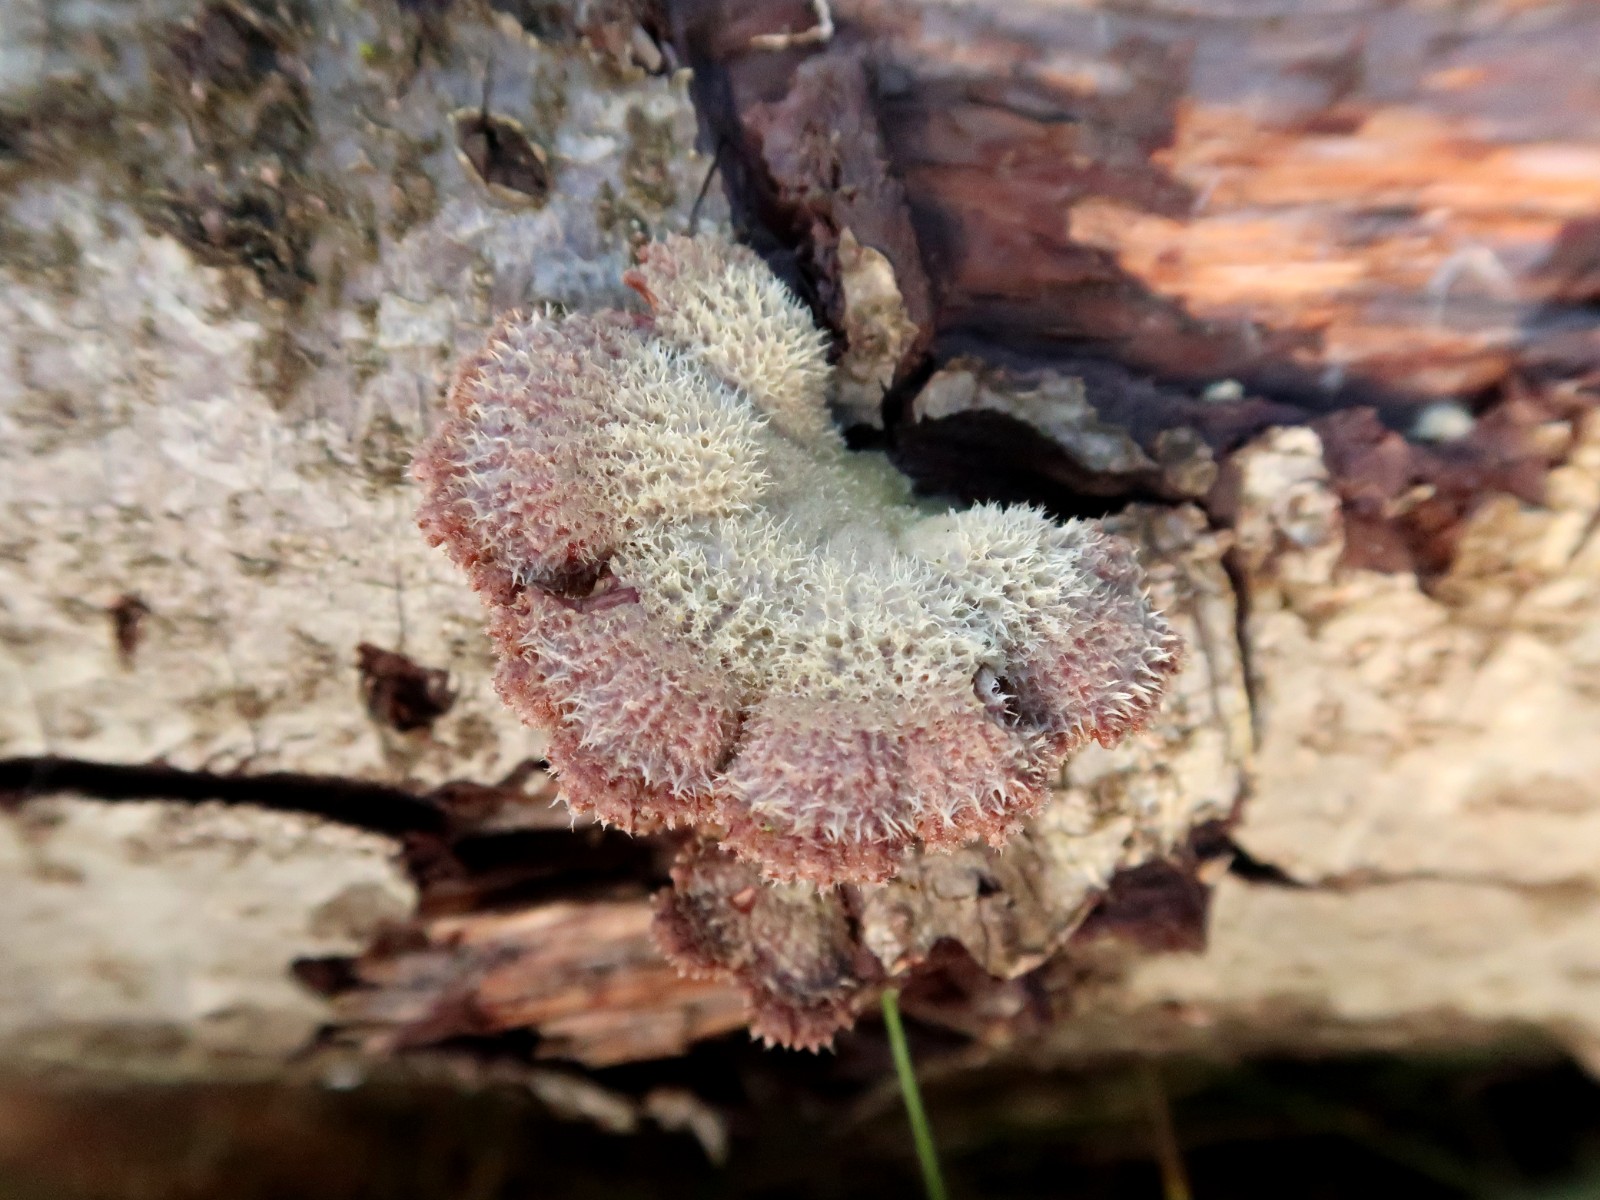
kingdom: Fungi
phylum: Basidiomycota
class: Agaricomycetes
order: Agaricales
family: Schizophyllaceae
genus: Schizophyllum
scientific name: Schizophyllum commune
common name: kløvblad
